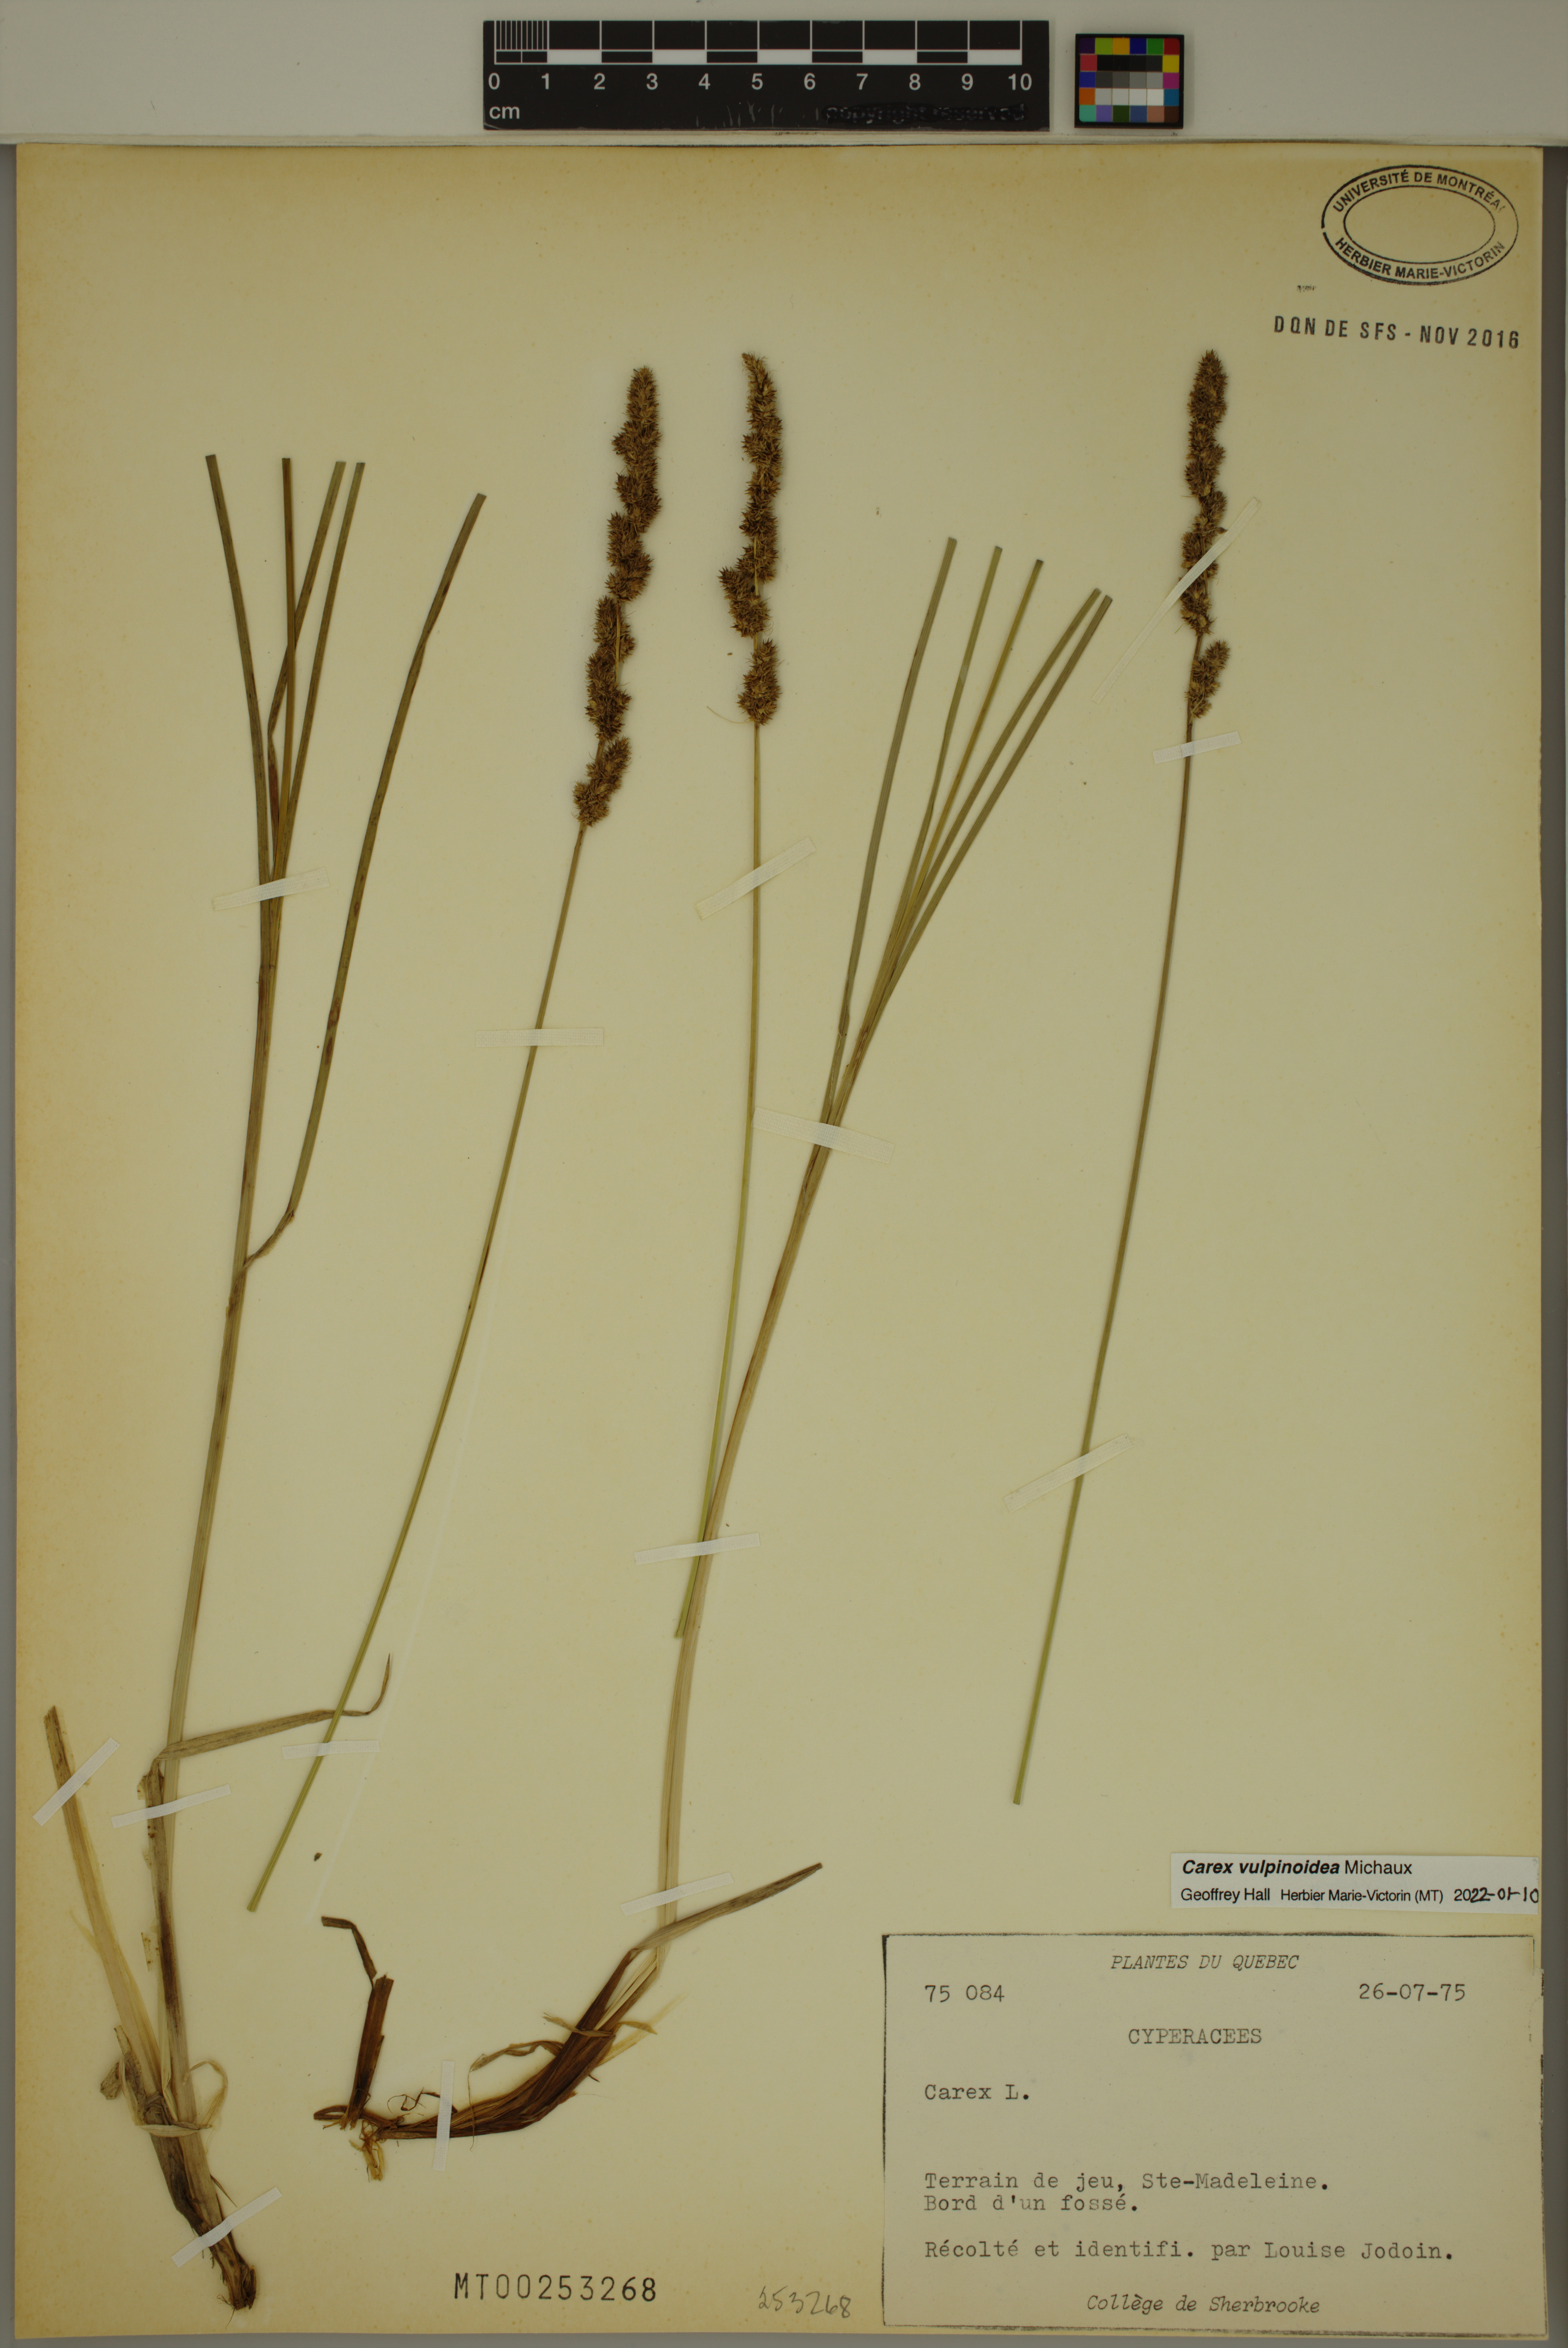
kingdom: Plantae
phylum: Tracheophyta
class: Liliopsida
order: Poales
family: Cyperaceae
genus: Carex
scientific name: Carex vulpinoidea
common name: American fox-sedge
